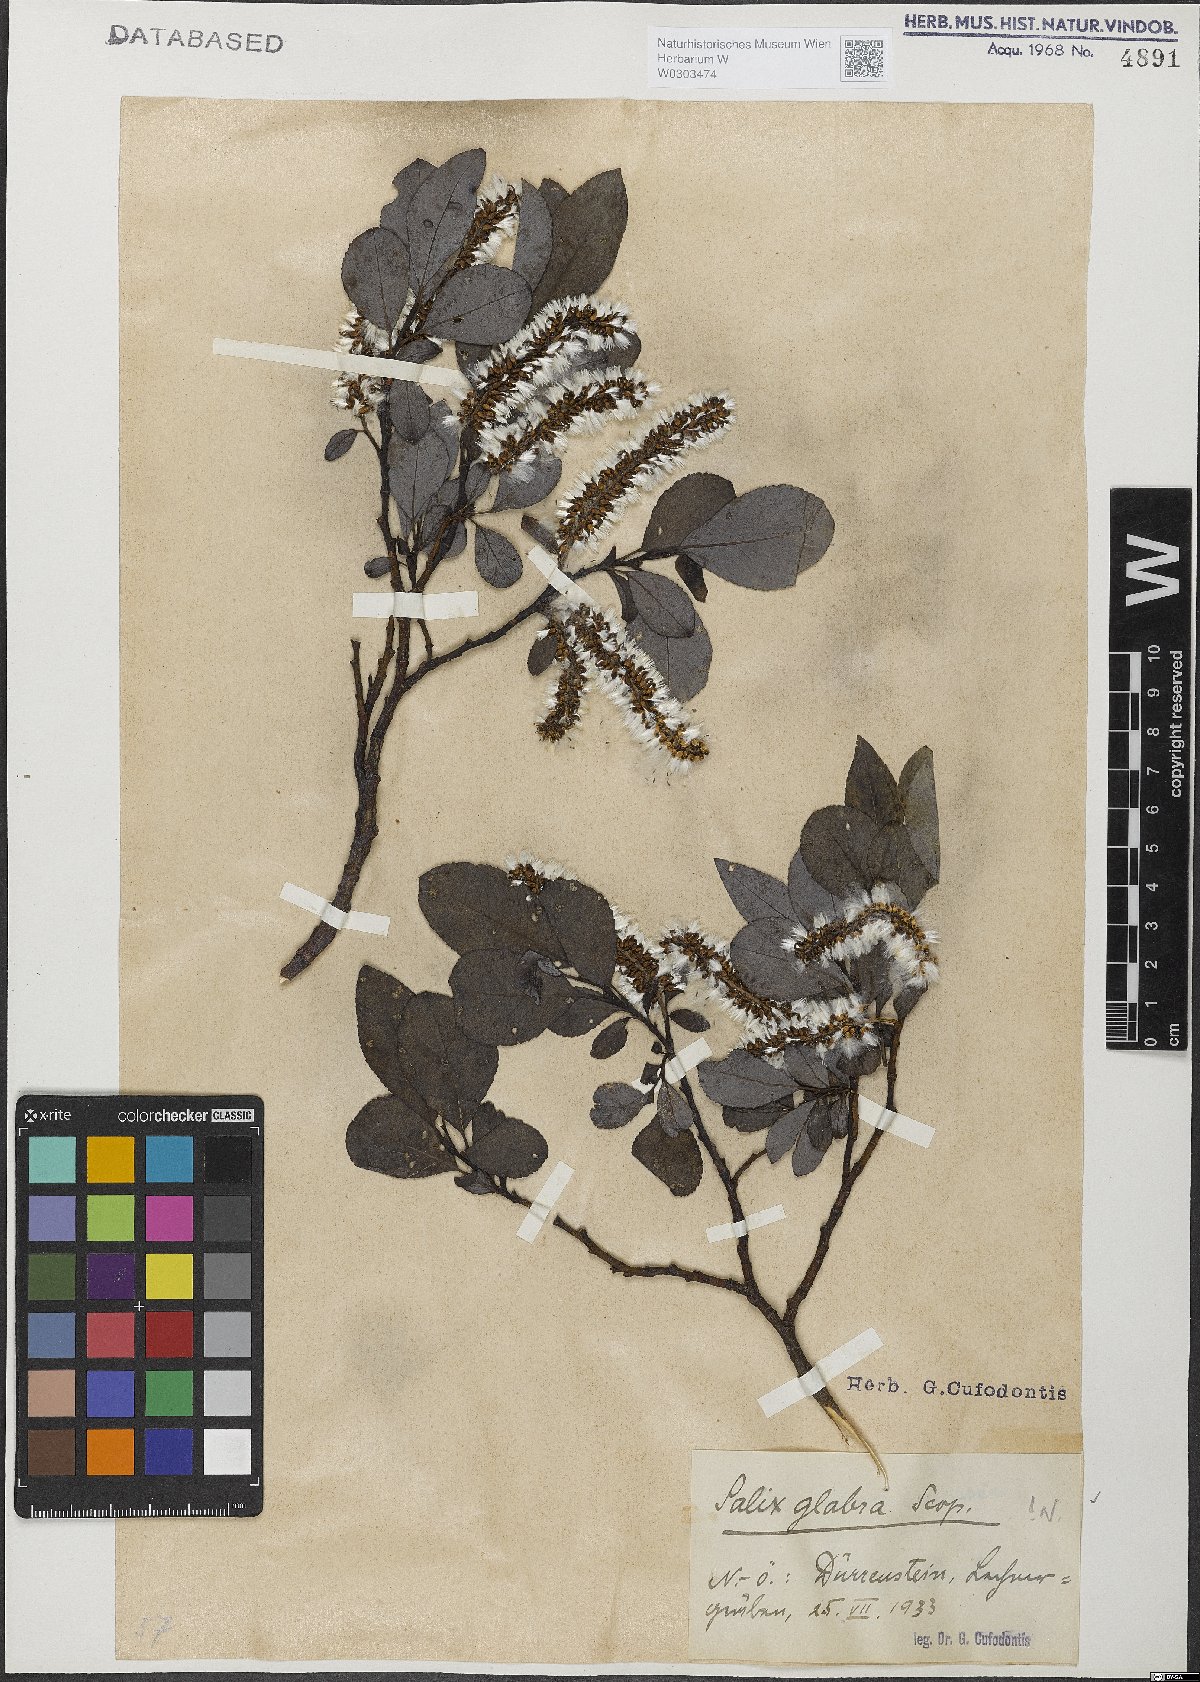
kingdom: Plantae
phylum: Tracheophyta
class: Magnoliopsida
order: Malpighiales
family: Salicaceae
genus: Salix
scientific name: Salix glabra
